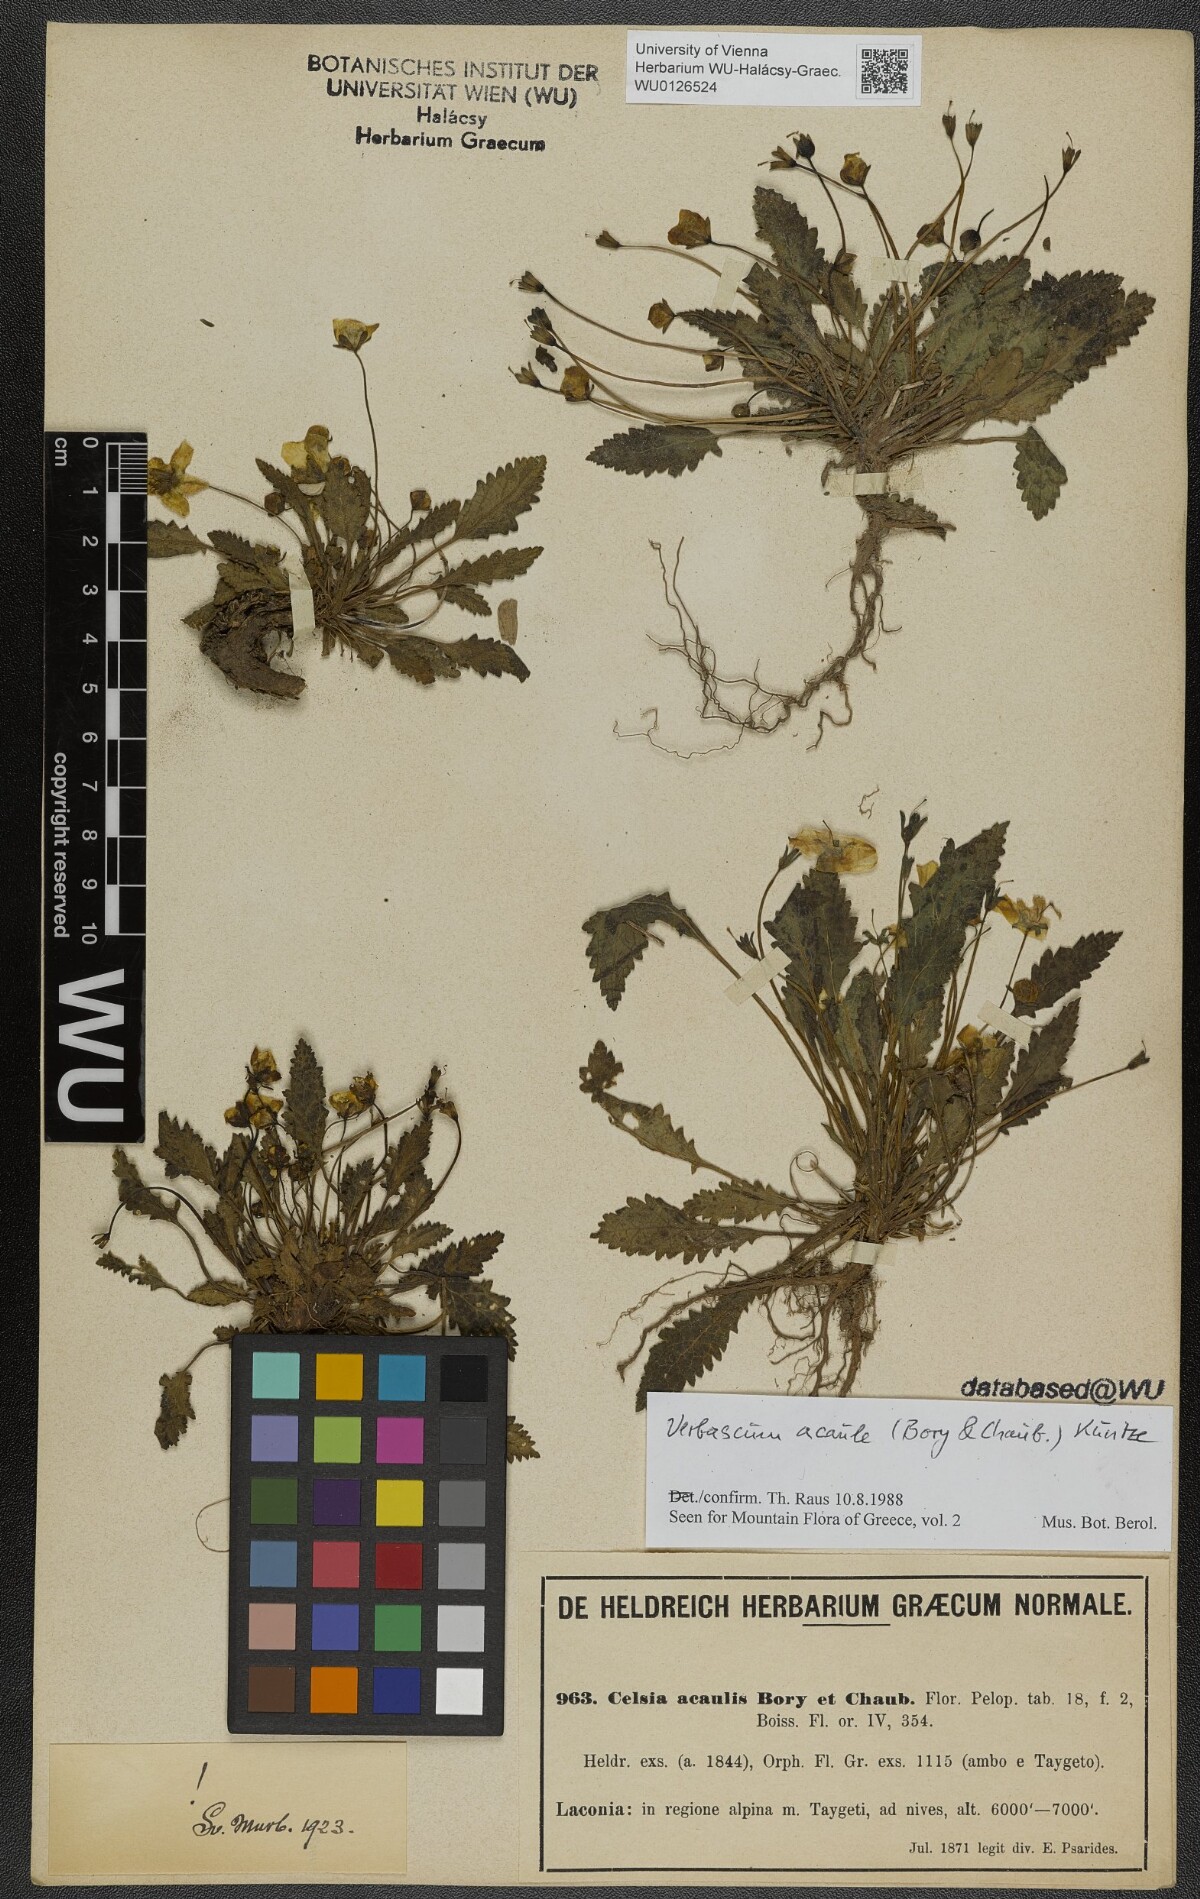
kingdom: Plantae
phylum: Tracheophyta
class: Magnoliopsida
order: Lamiales
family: Scrophulariaceae
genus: Verbascum
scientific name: Verbascum acaule
